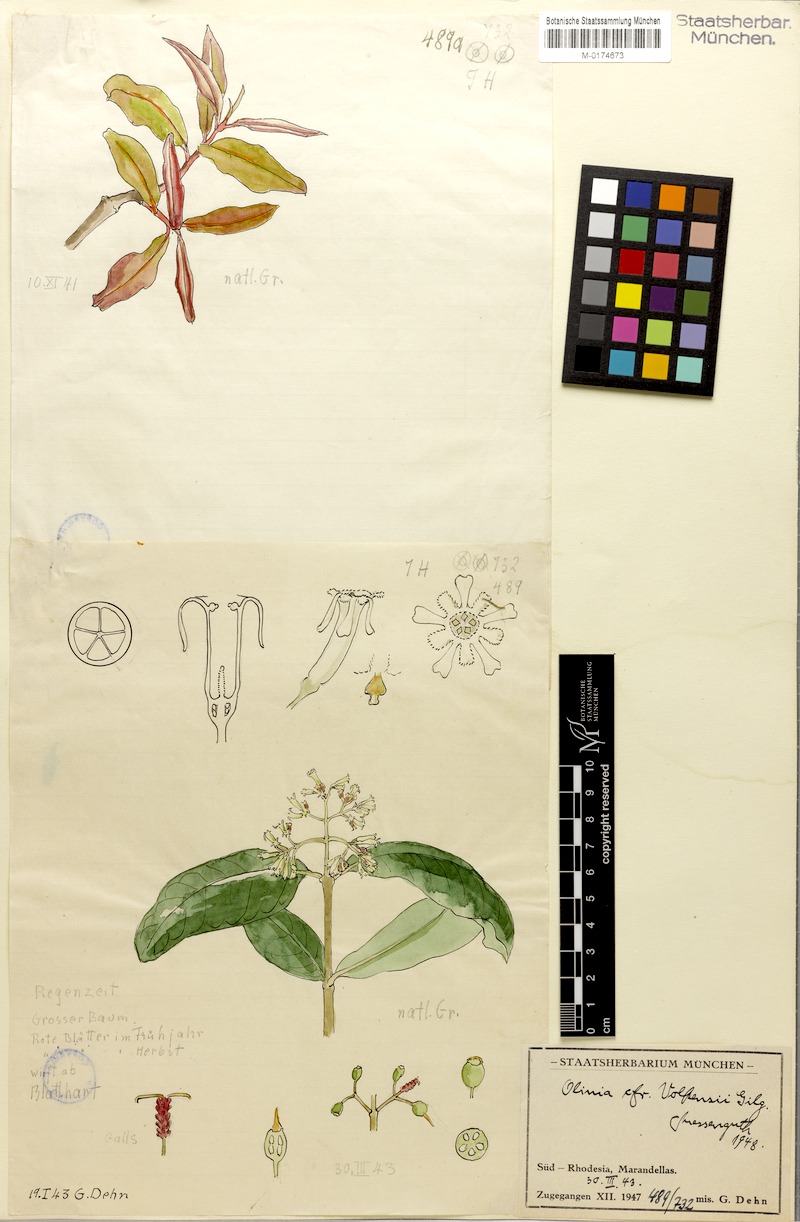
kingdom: Plantae
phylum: Tracheophyta
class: Magnoliopsida
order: Myrtales
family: Penaeaceae
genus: Olinia
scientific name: Olinia rochetiana
